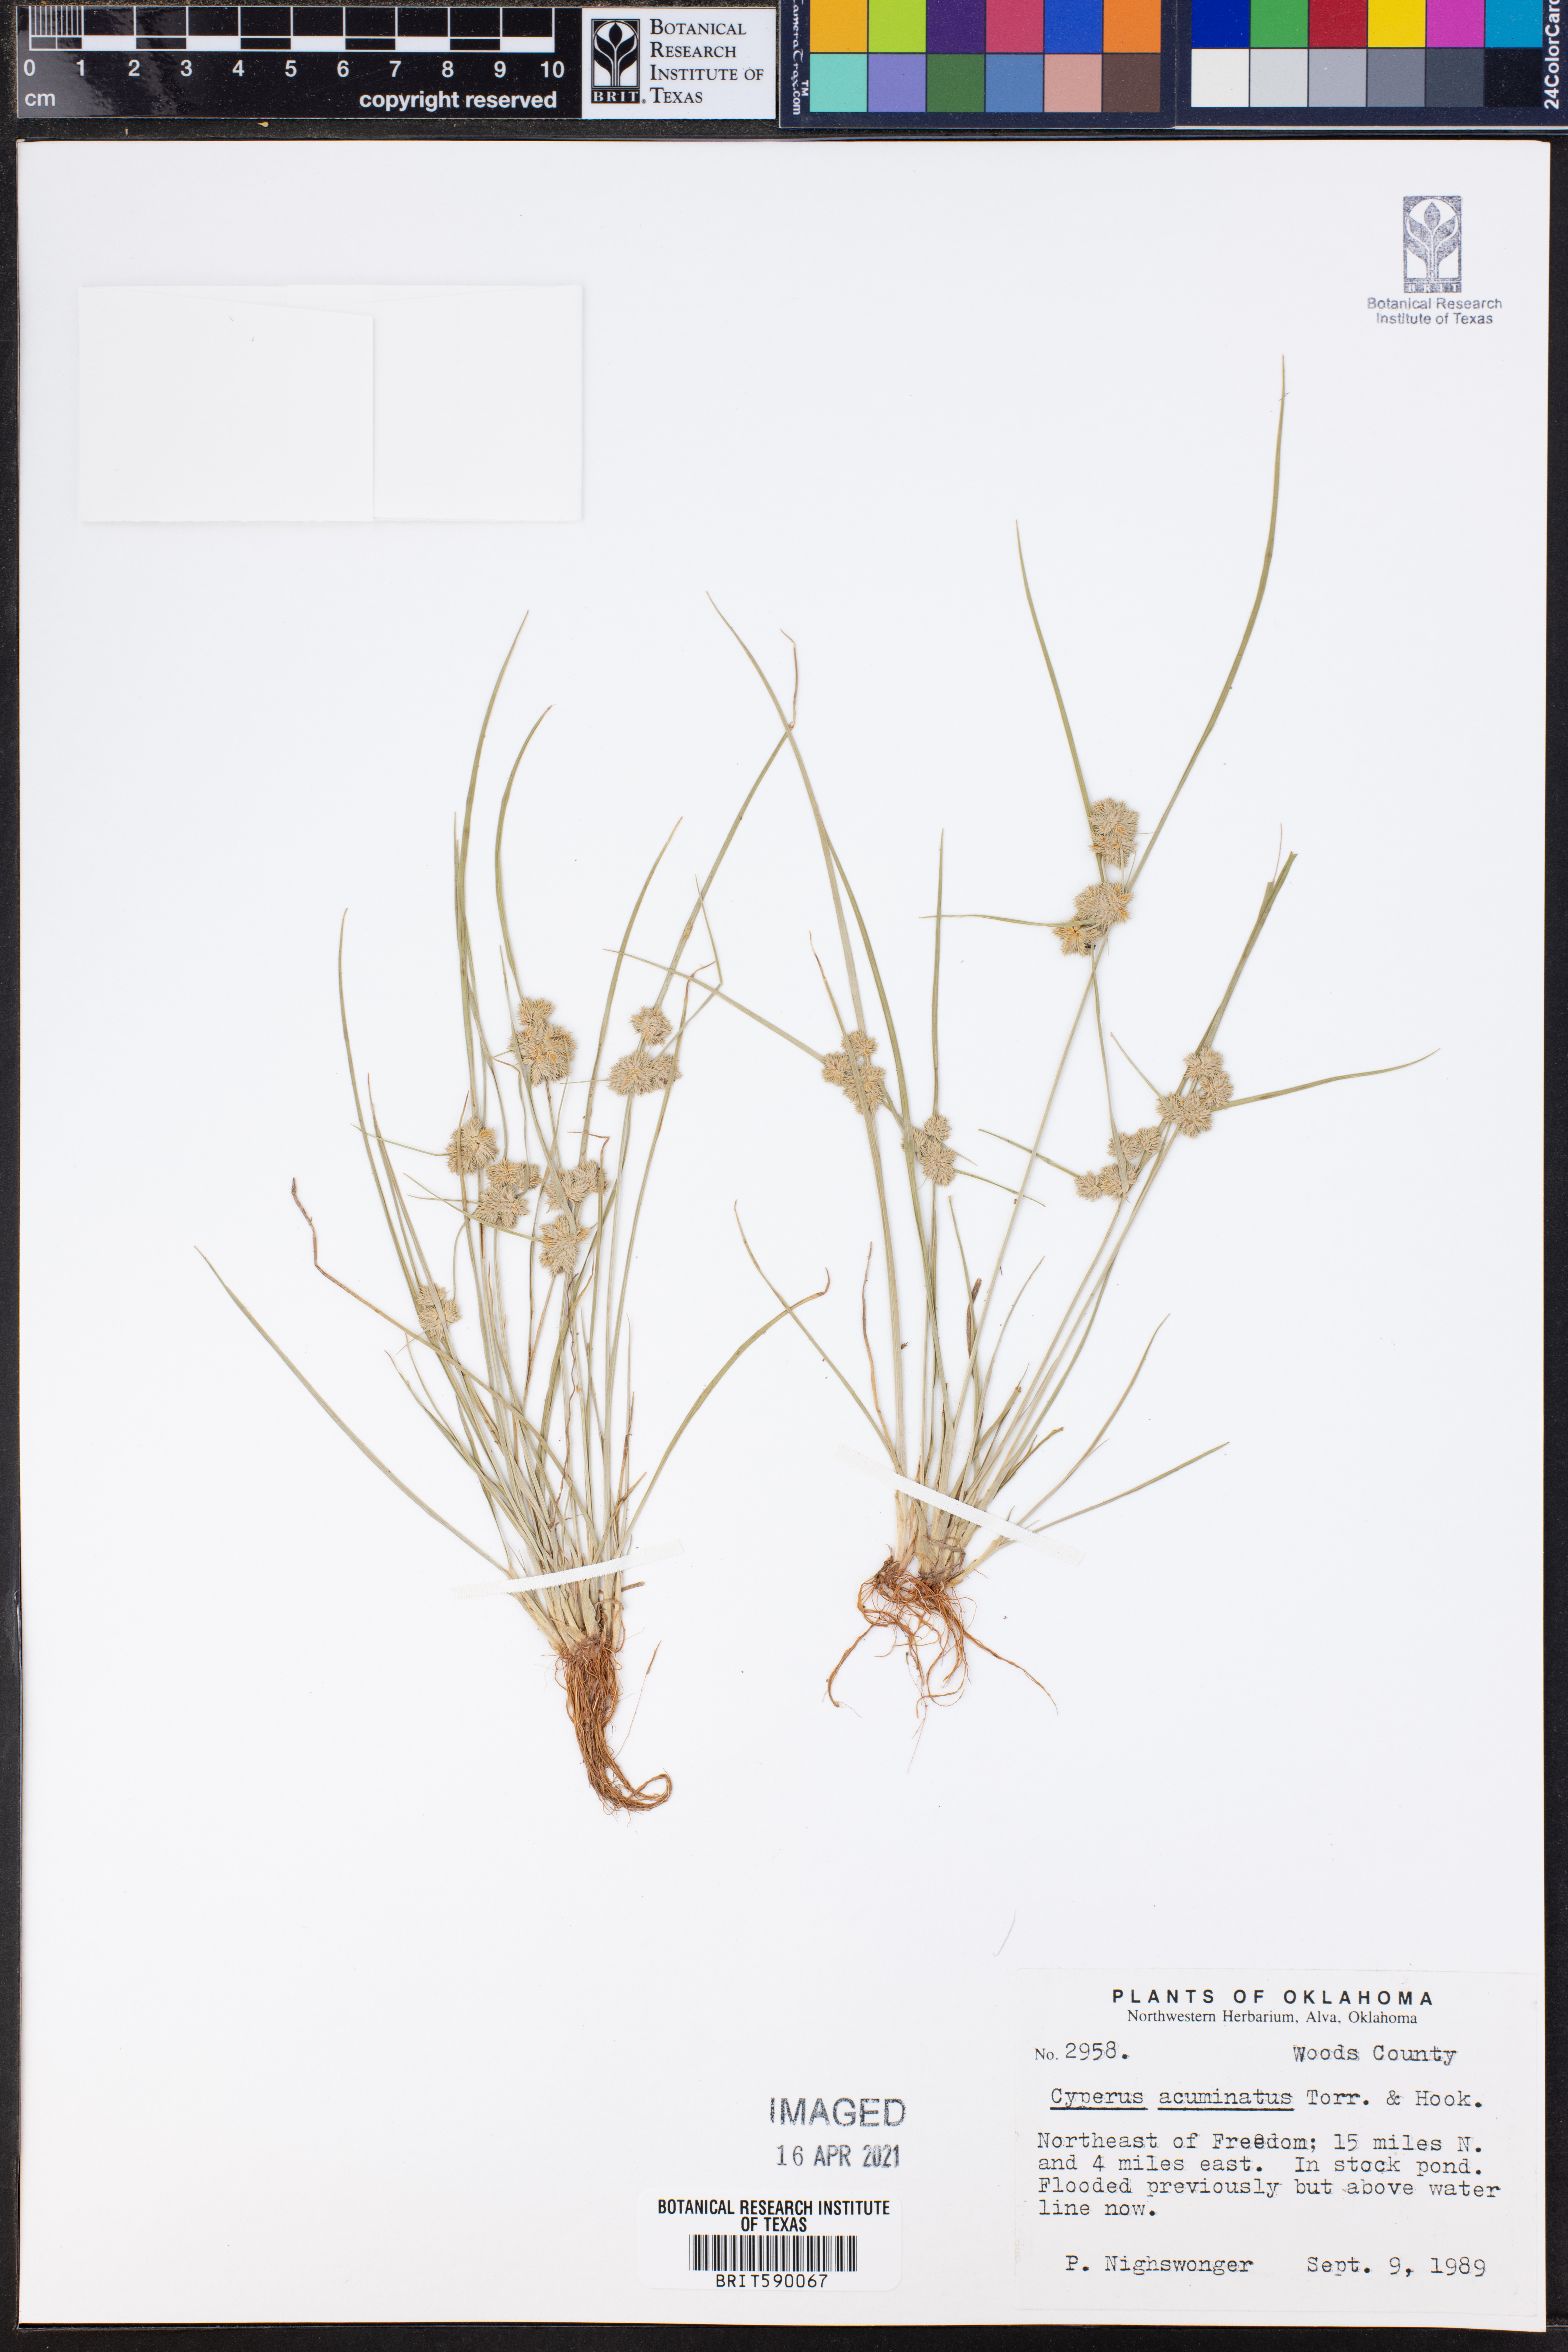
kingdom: Plantae
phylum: Tracheophyta
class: Liliopsida
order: Poales
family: Cyperaceae
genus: Cyperus
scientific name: Cyperus acuminatus
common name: Short-pointed cyperus
